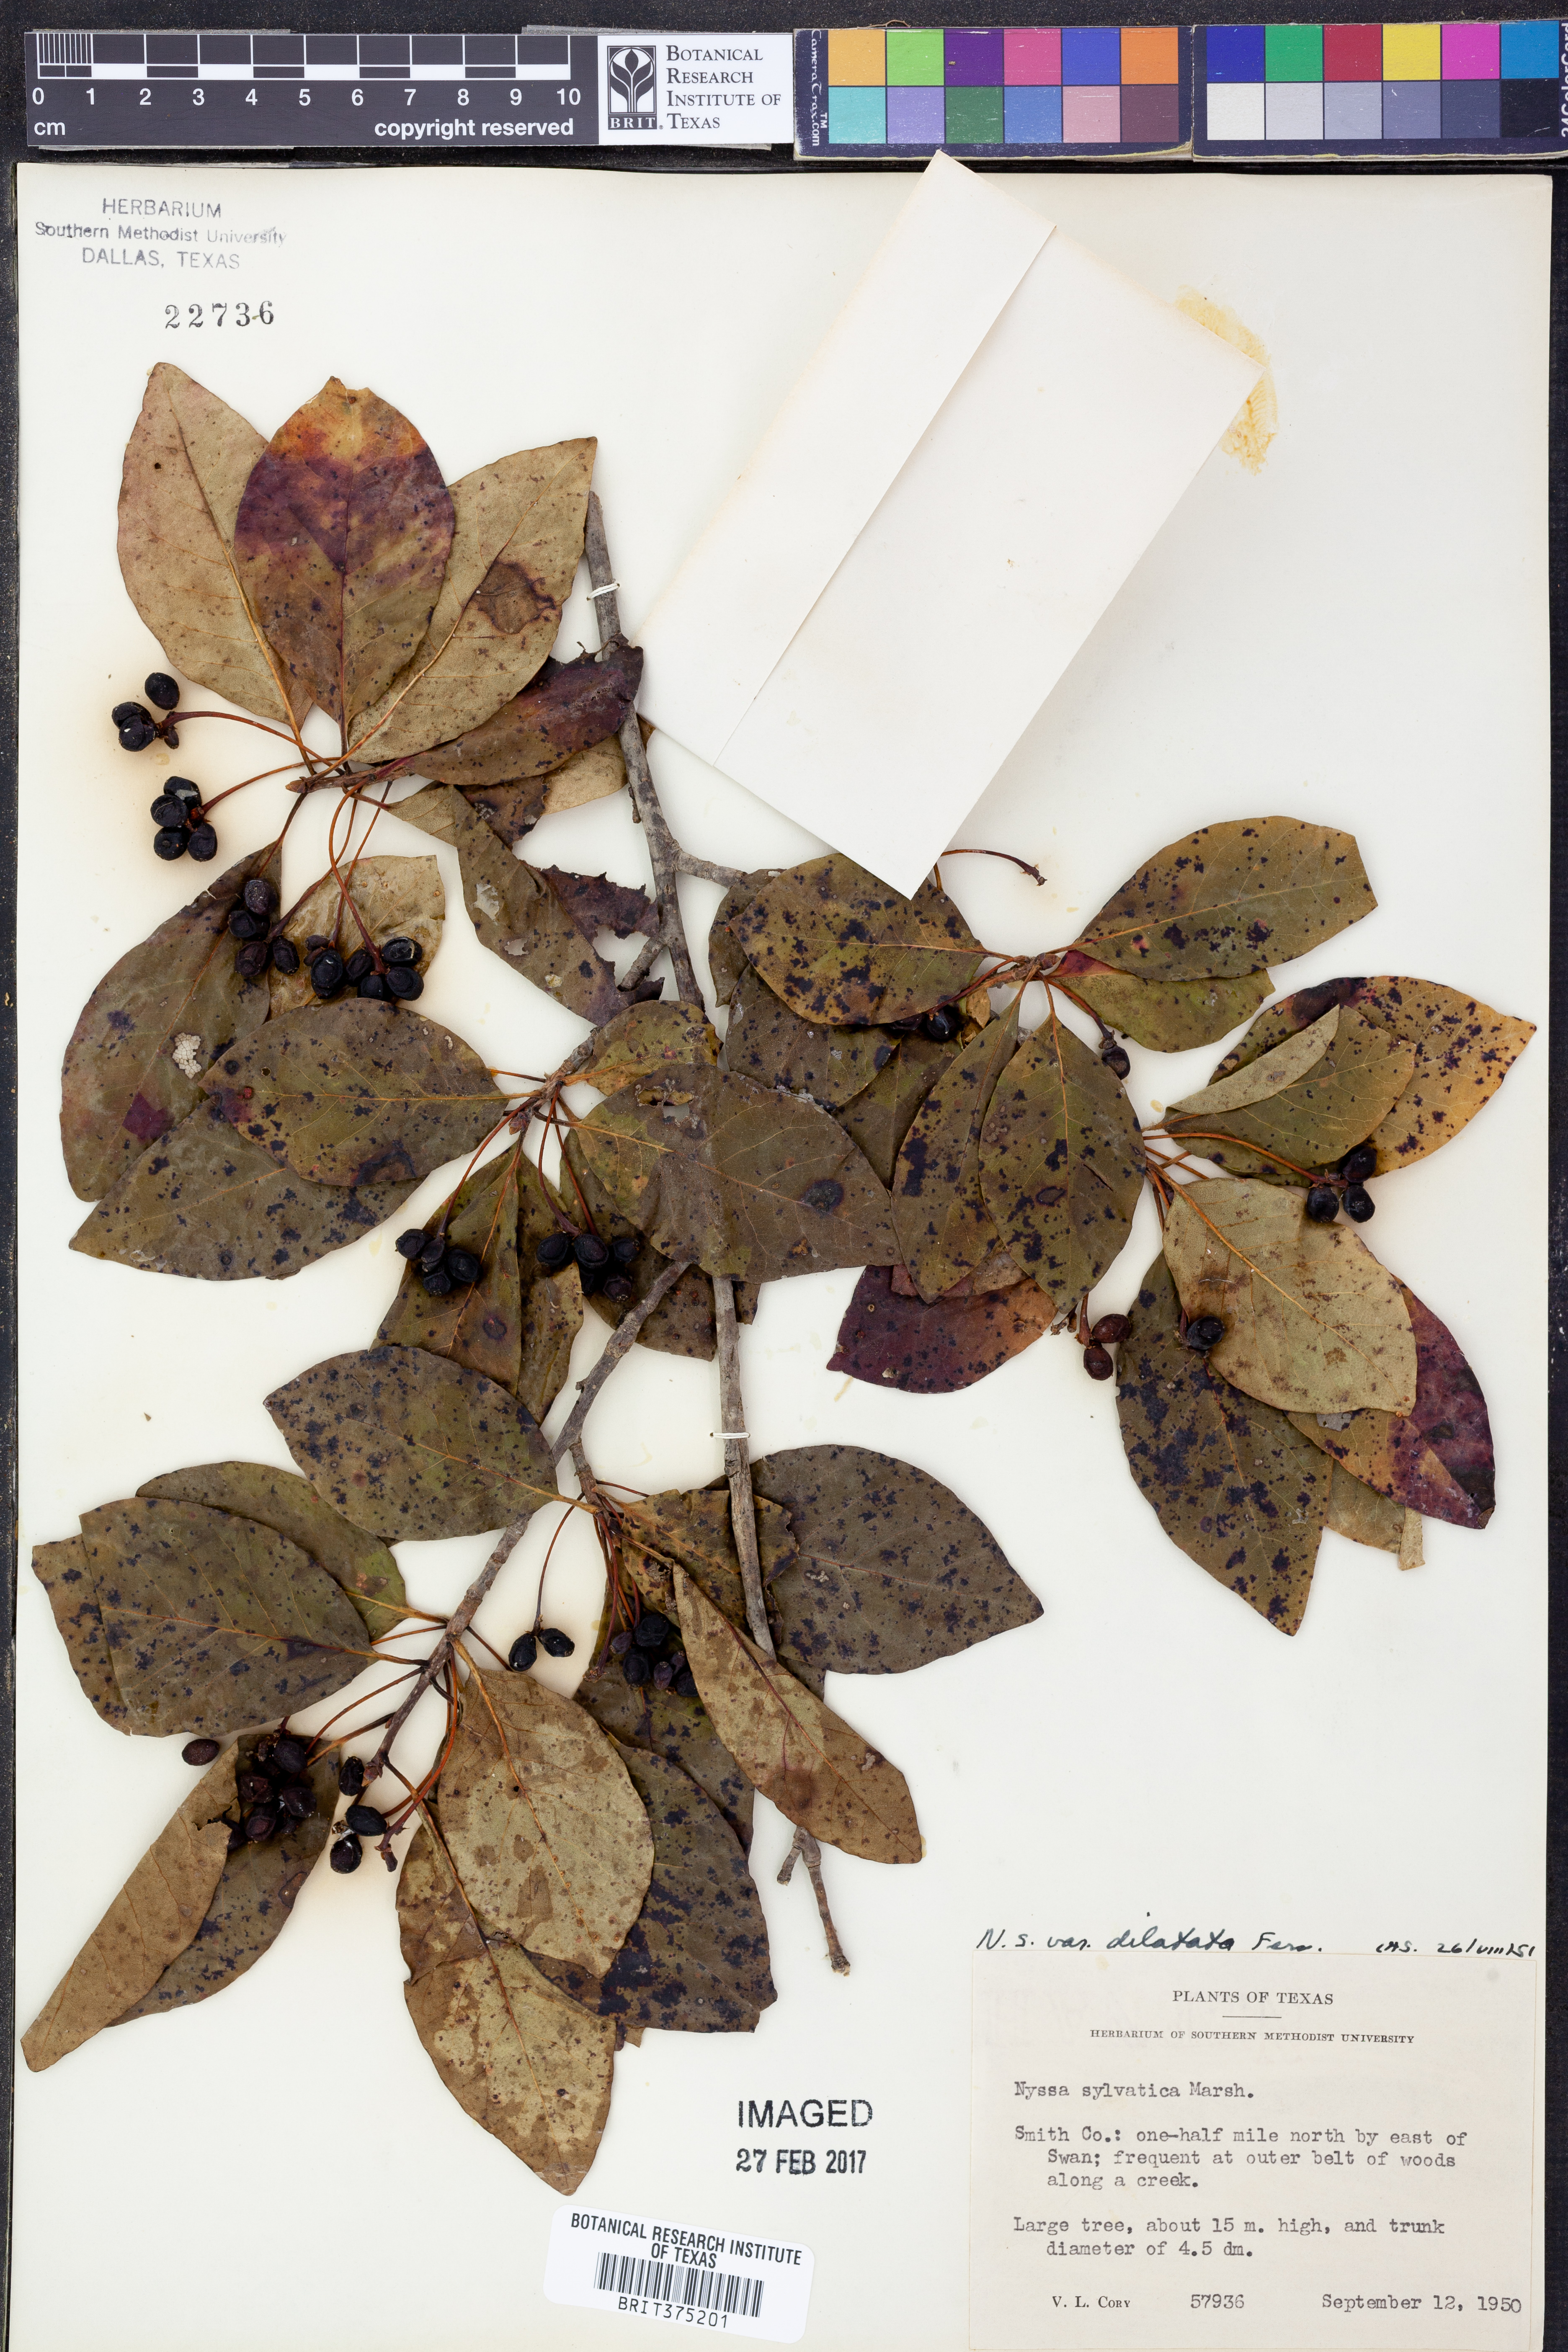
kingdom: Plantae
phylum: Tracheophyta
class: Magnoliopsida
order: Cornales
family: Nyssaceae
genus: Nyssa
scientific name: Nyssa sylvatica
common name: Black tupelo
